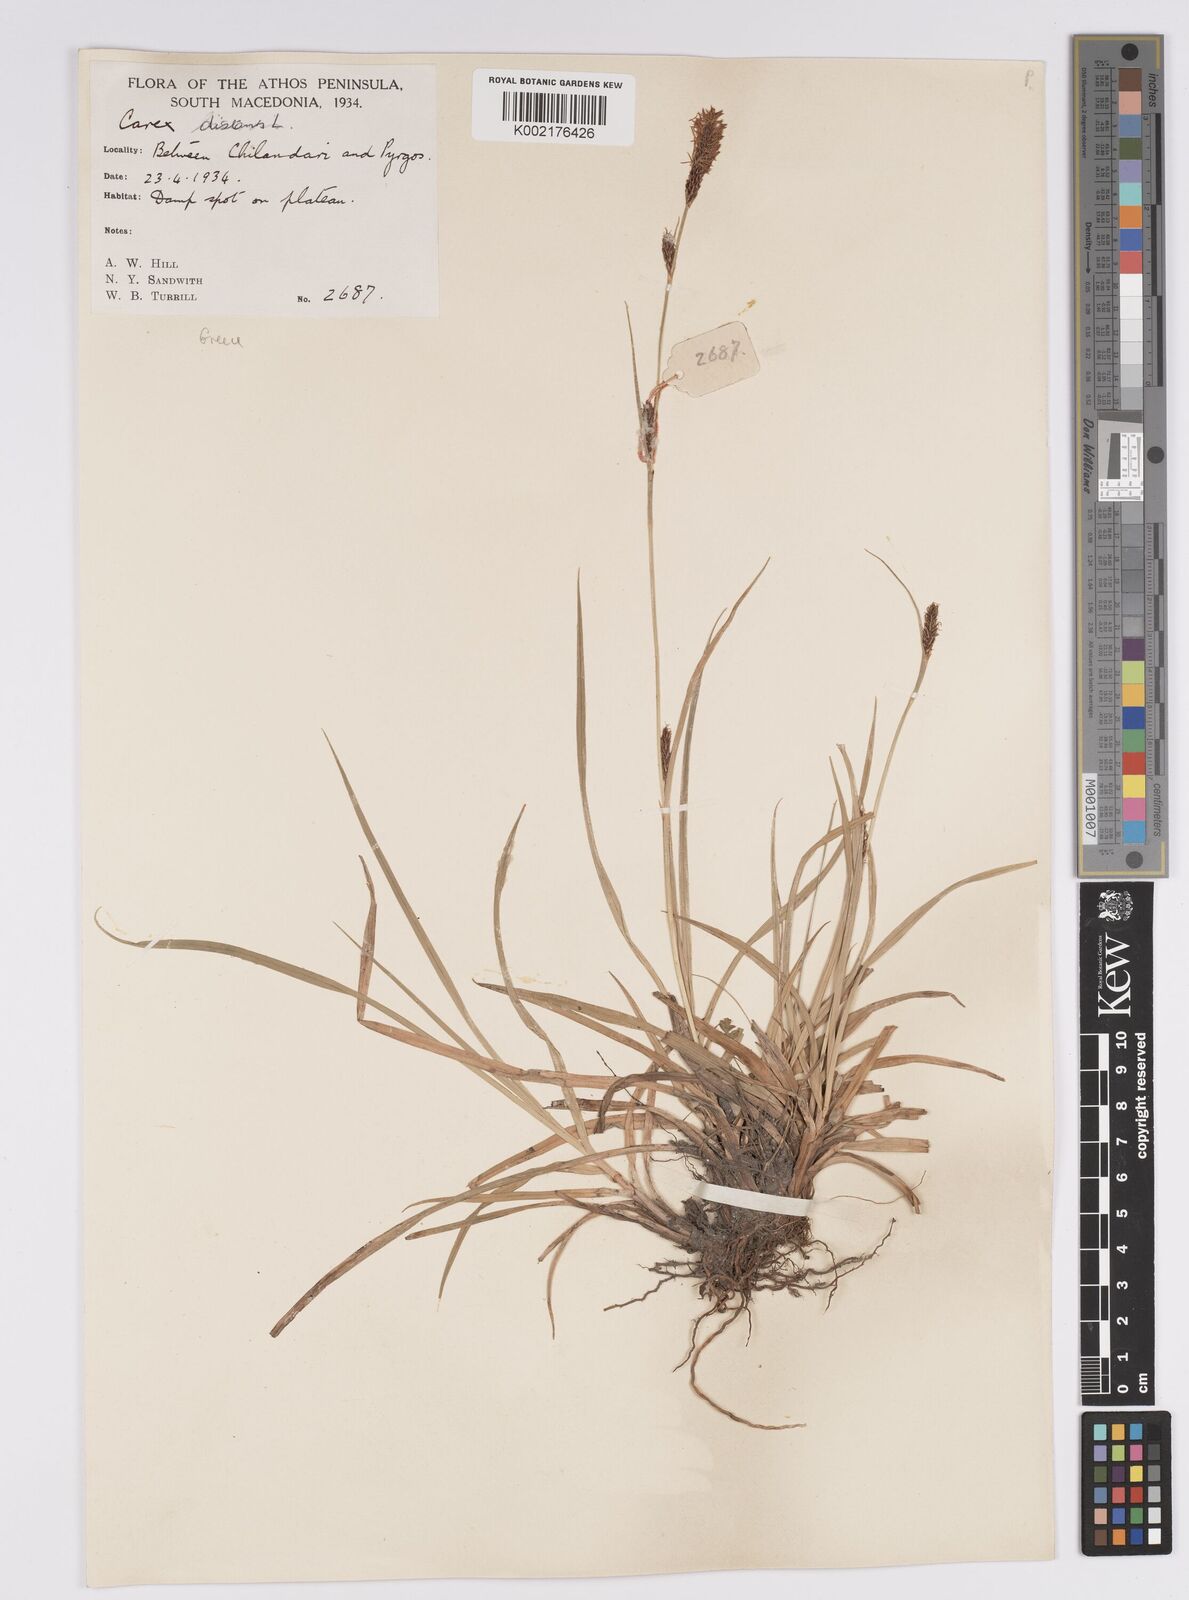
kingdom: Plantae
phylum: Tracheophyta
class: Liliopsida
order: Poales
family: Cyperaceae
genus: Carex
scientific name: Carex distans
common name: Distant sedge
